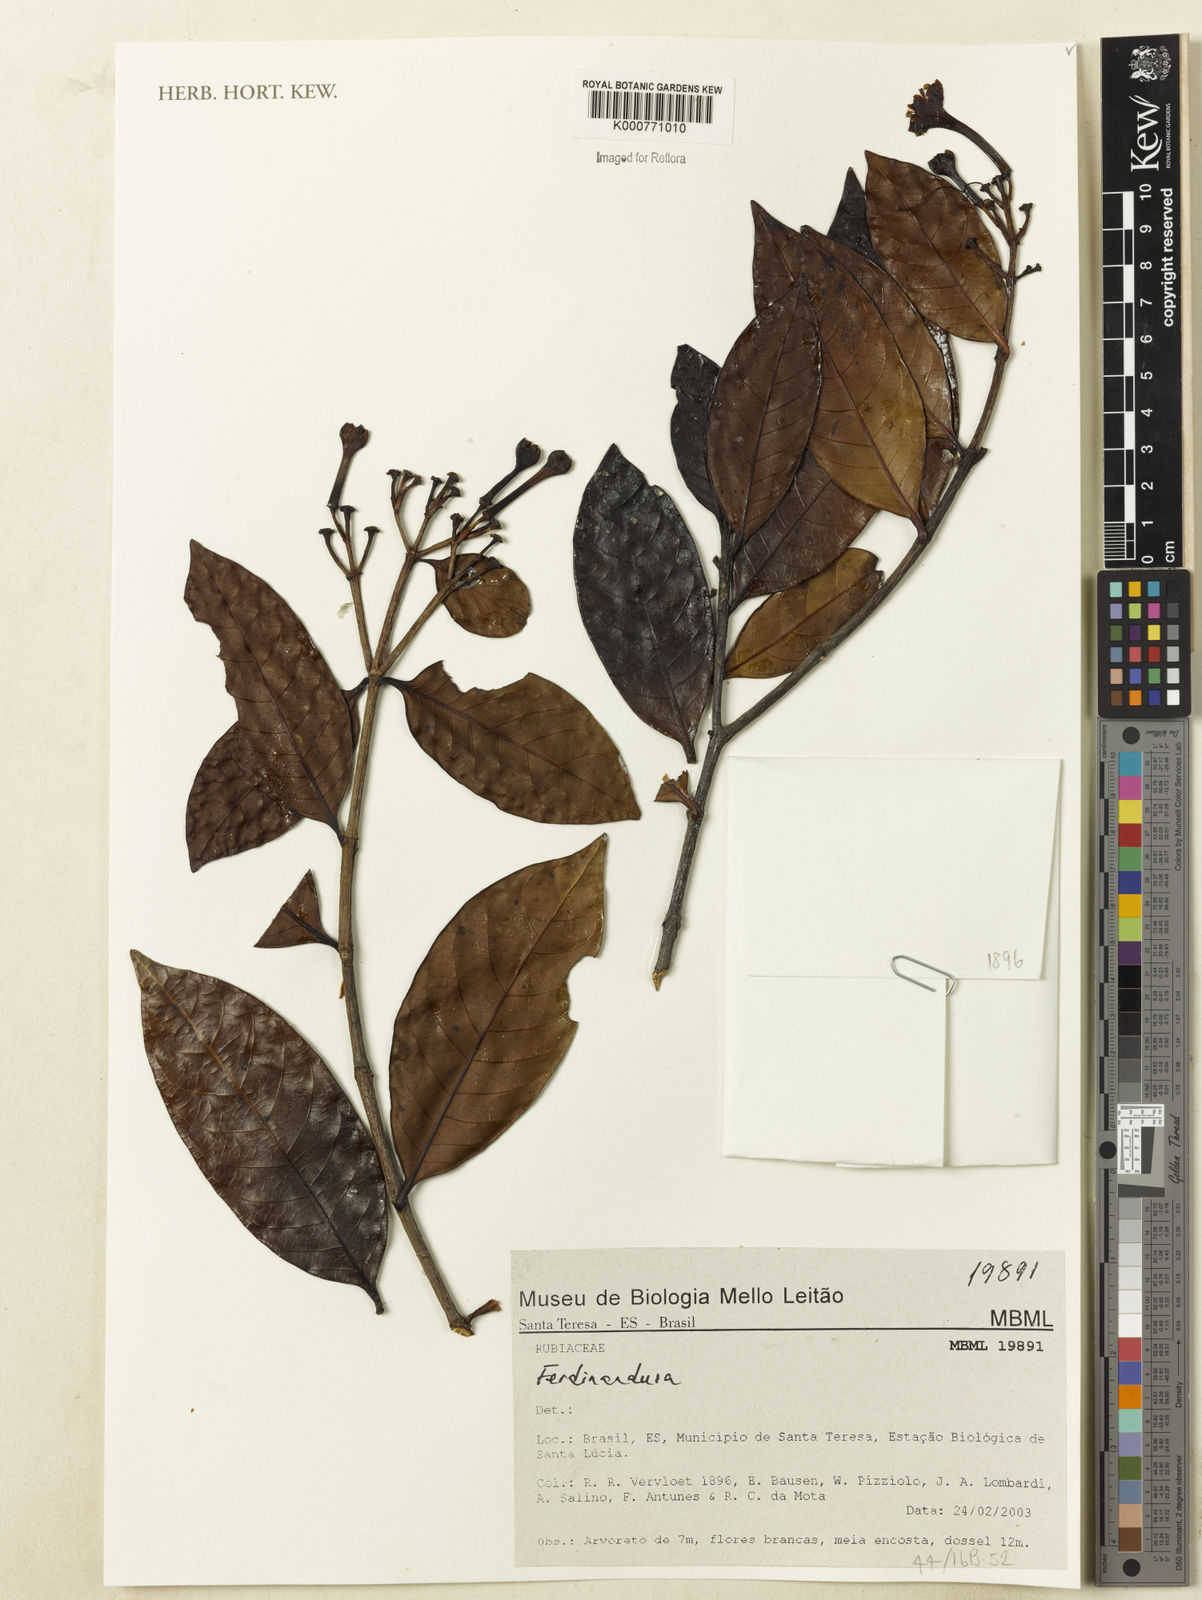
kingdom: Plantae
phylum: Tracheophyta
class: Magnoliopsida
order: Gentianales
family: Rubiaceae
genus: Ferdinandusa
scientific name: Ferdinandusa
